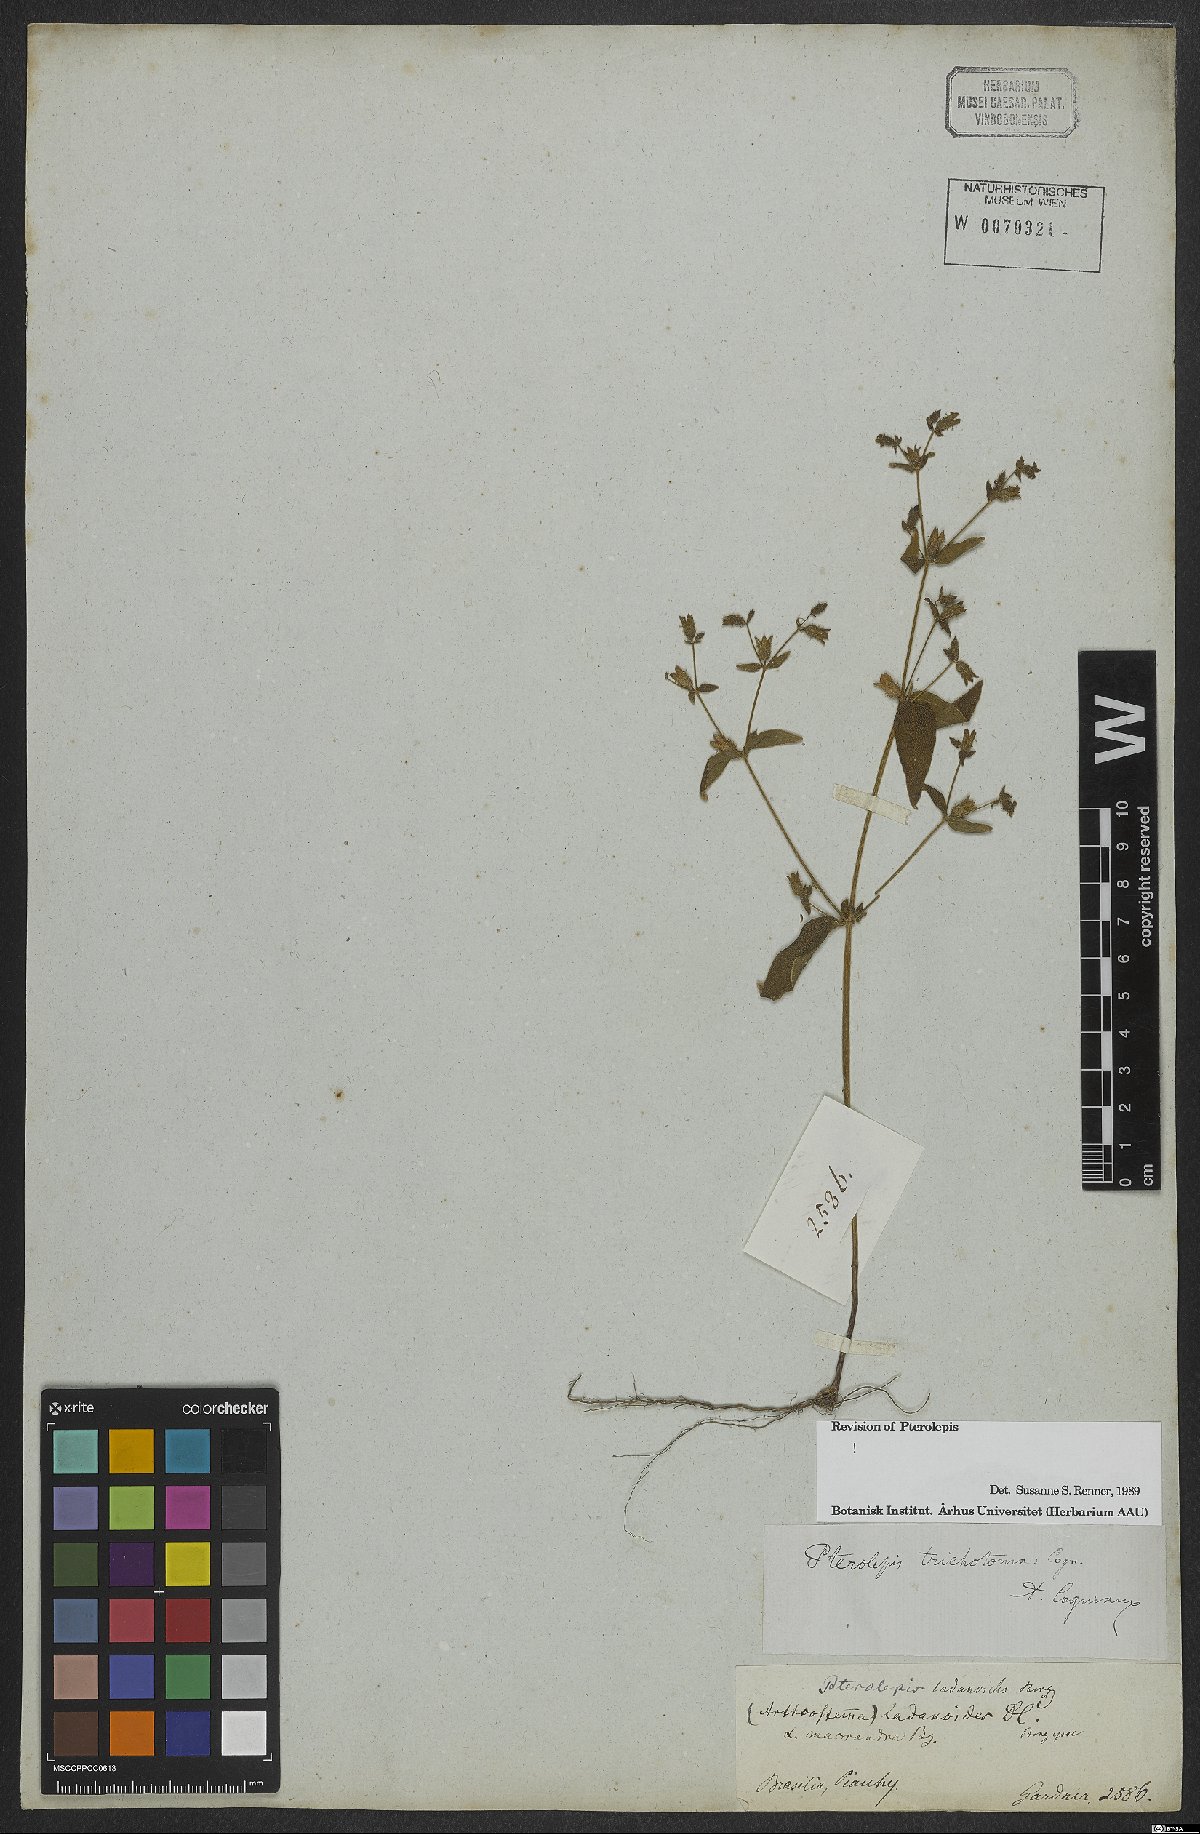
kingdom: Plantae
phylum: Tracheophyta
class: Magnoliopsida
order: Myrtales
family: Melastomataceae
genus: Pterolepis
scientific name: Pterolepis trichotoma
